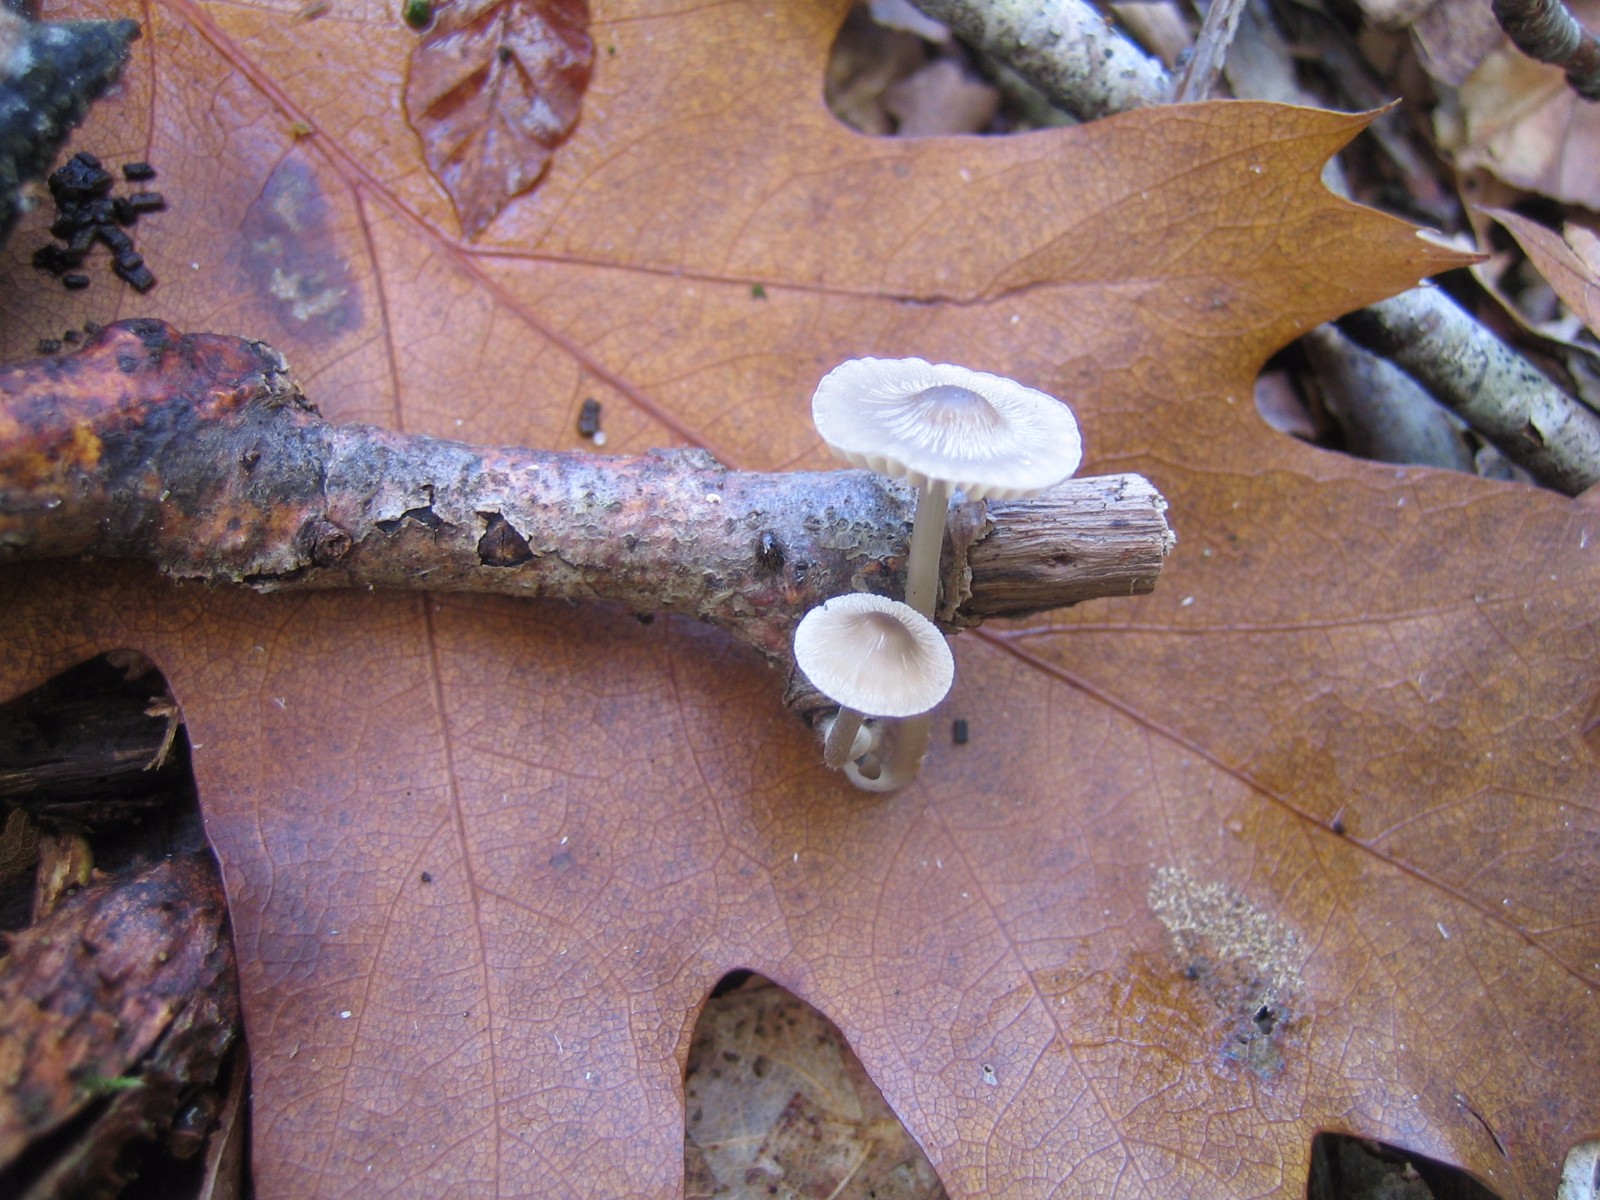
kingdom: Fungi
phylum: Basidiomycota
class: Agaricomycetes
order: Agaricales
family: Mycenaceae
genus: Mycena
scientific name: Mycena
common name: huesvamp
